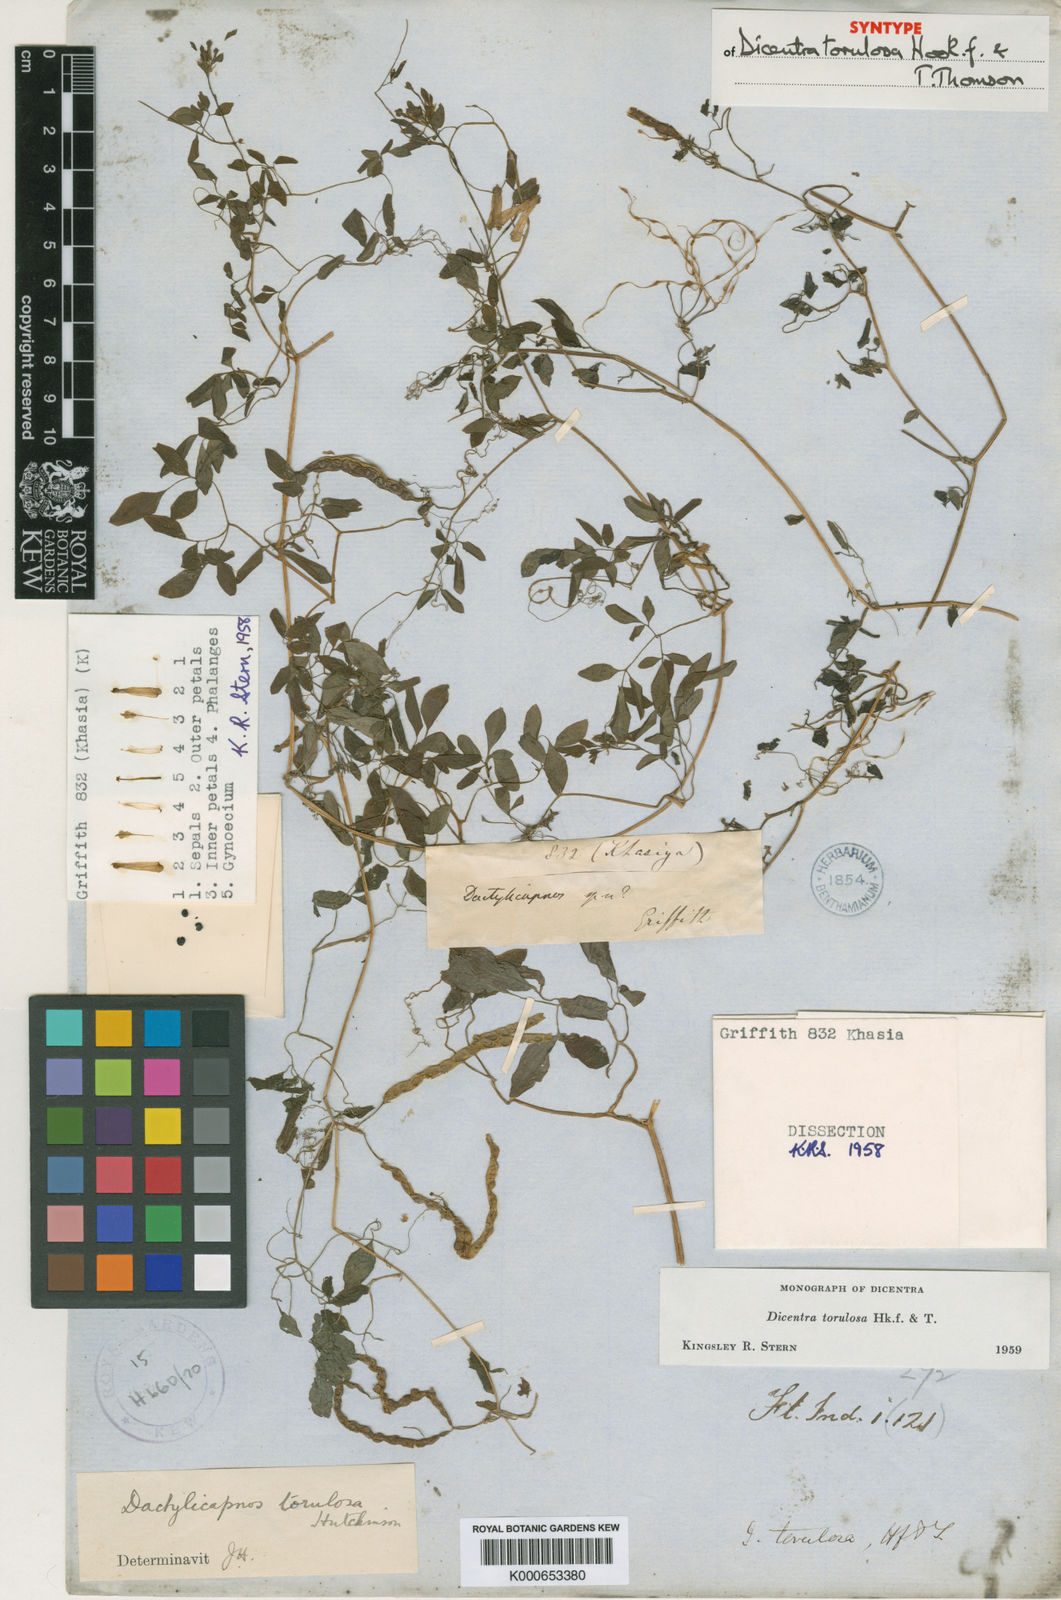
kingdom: Plantae
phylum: Tracheophyta
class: Magnoliopsida
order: Ranunculales
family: Papaveraceae
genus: Dactylicapnos
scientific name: Dactylicapnos torulosa
